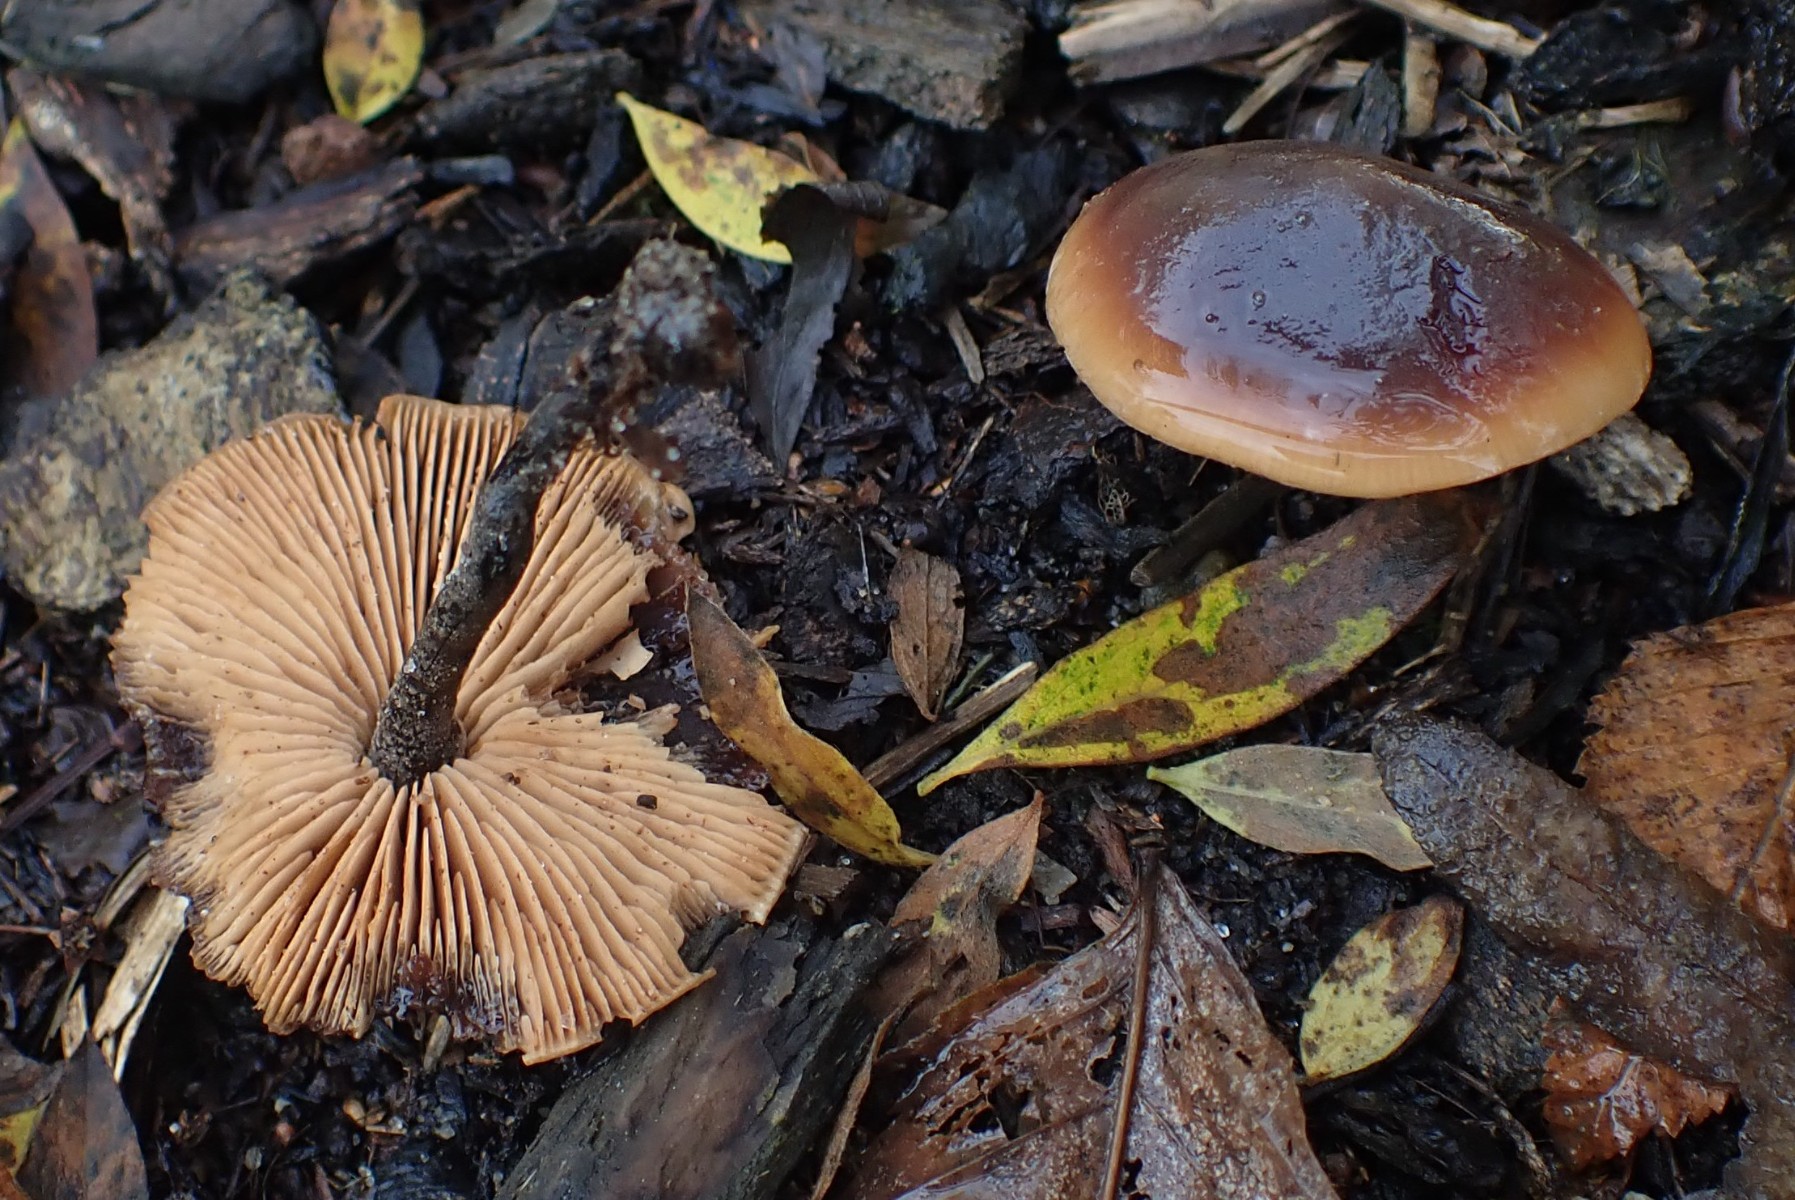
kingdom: Fungi
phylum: Basidiomycota
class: Agaricomycetes
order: Agaricales
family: Macrocystidiaceae
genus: Macrocystidia
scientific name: Macrocystidia cucumis
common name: agurkehat
